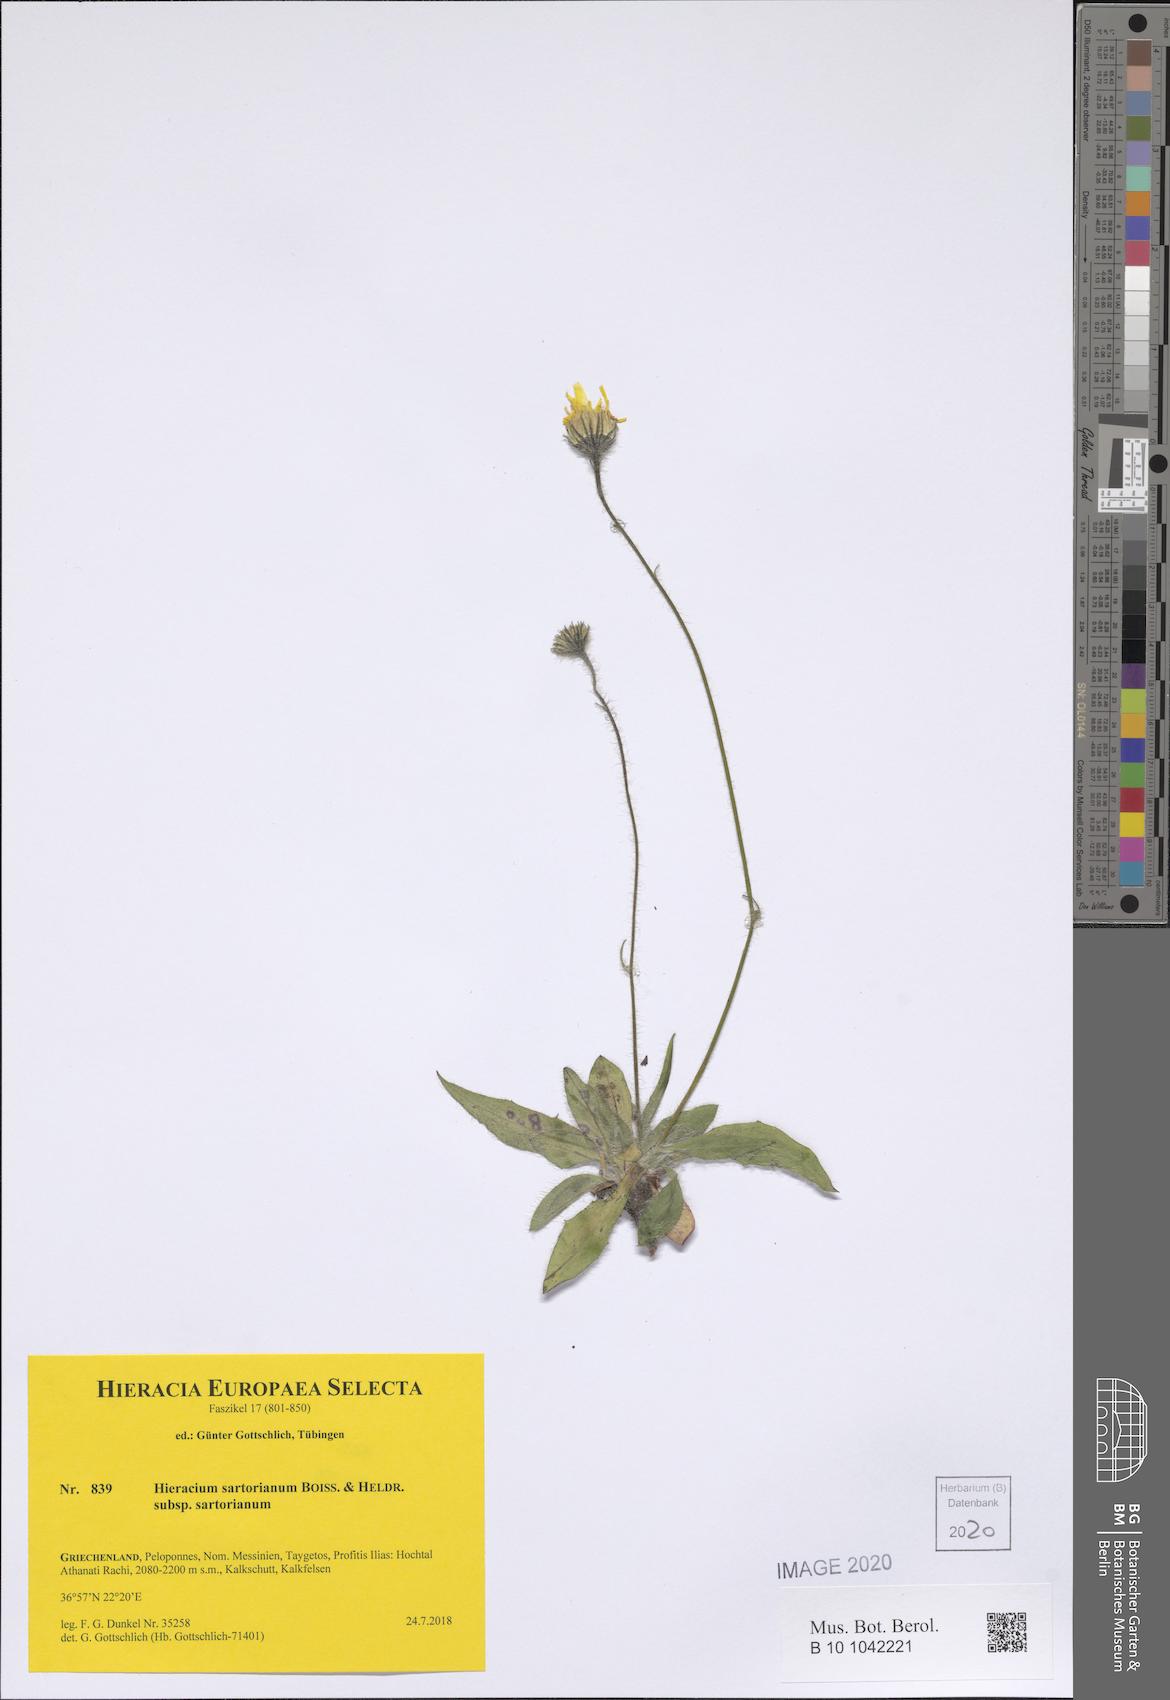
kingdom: Plantae
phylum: Tracheophyta
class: Magnoliopsida
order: Asterales
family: Asteraceae
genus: Hieracium
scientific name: Hieracium sartorianum
